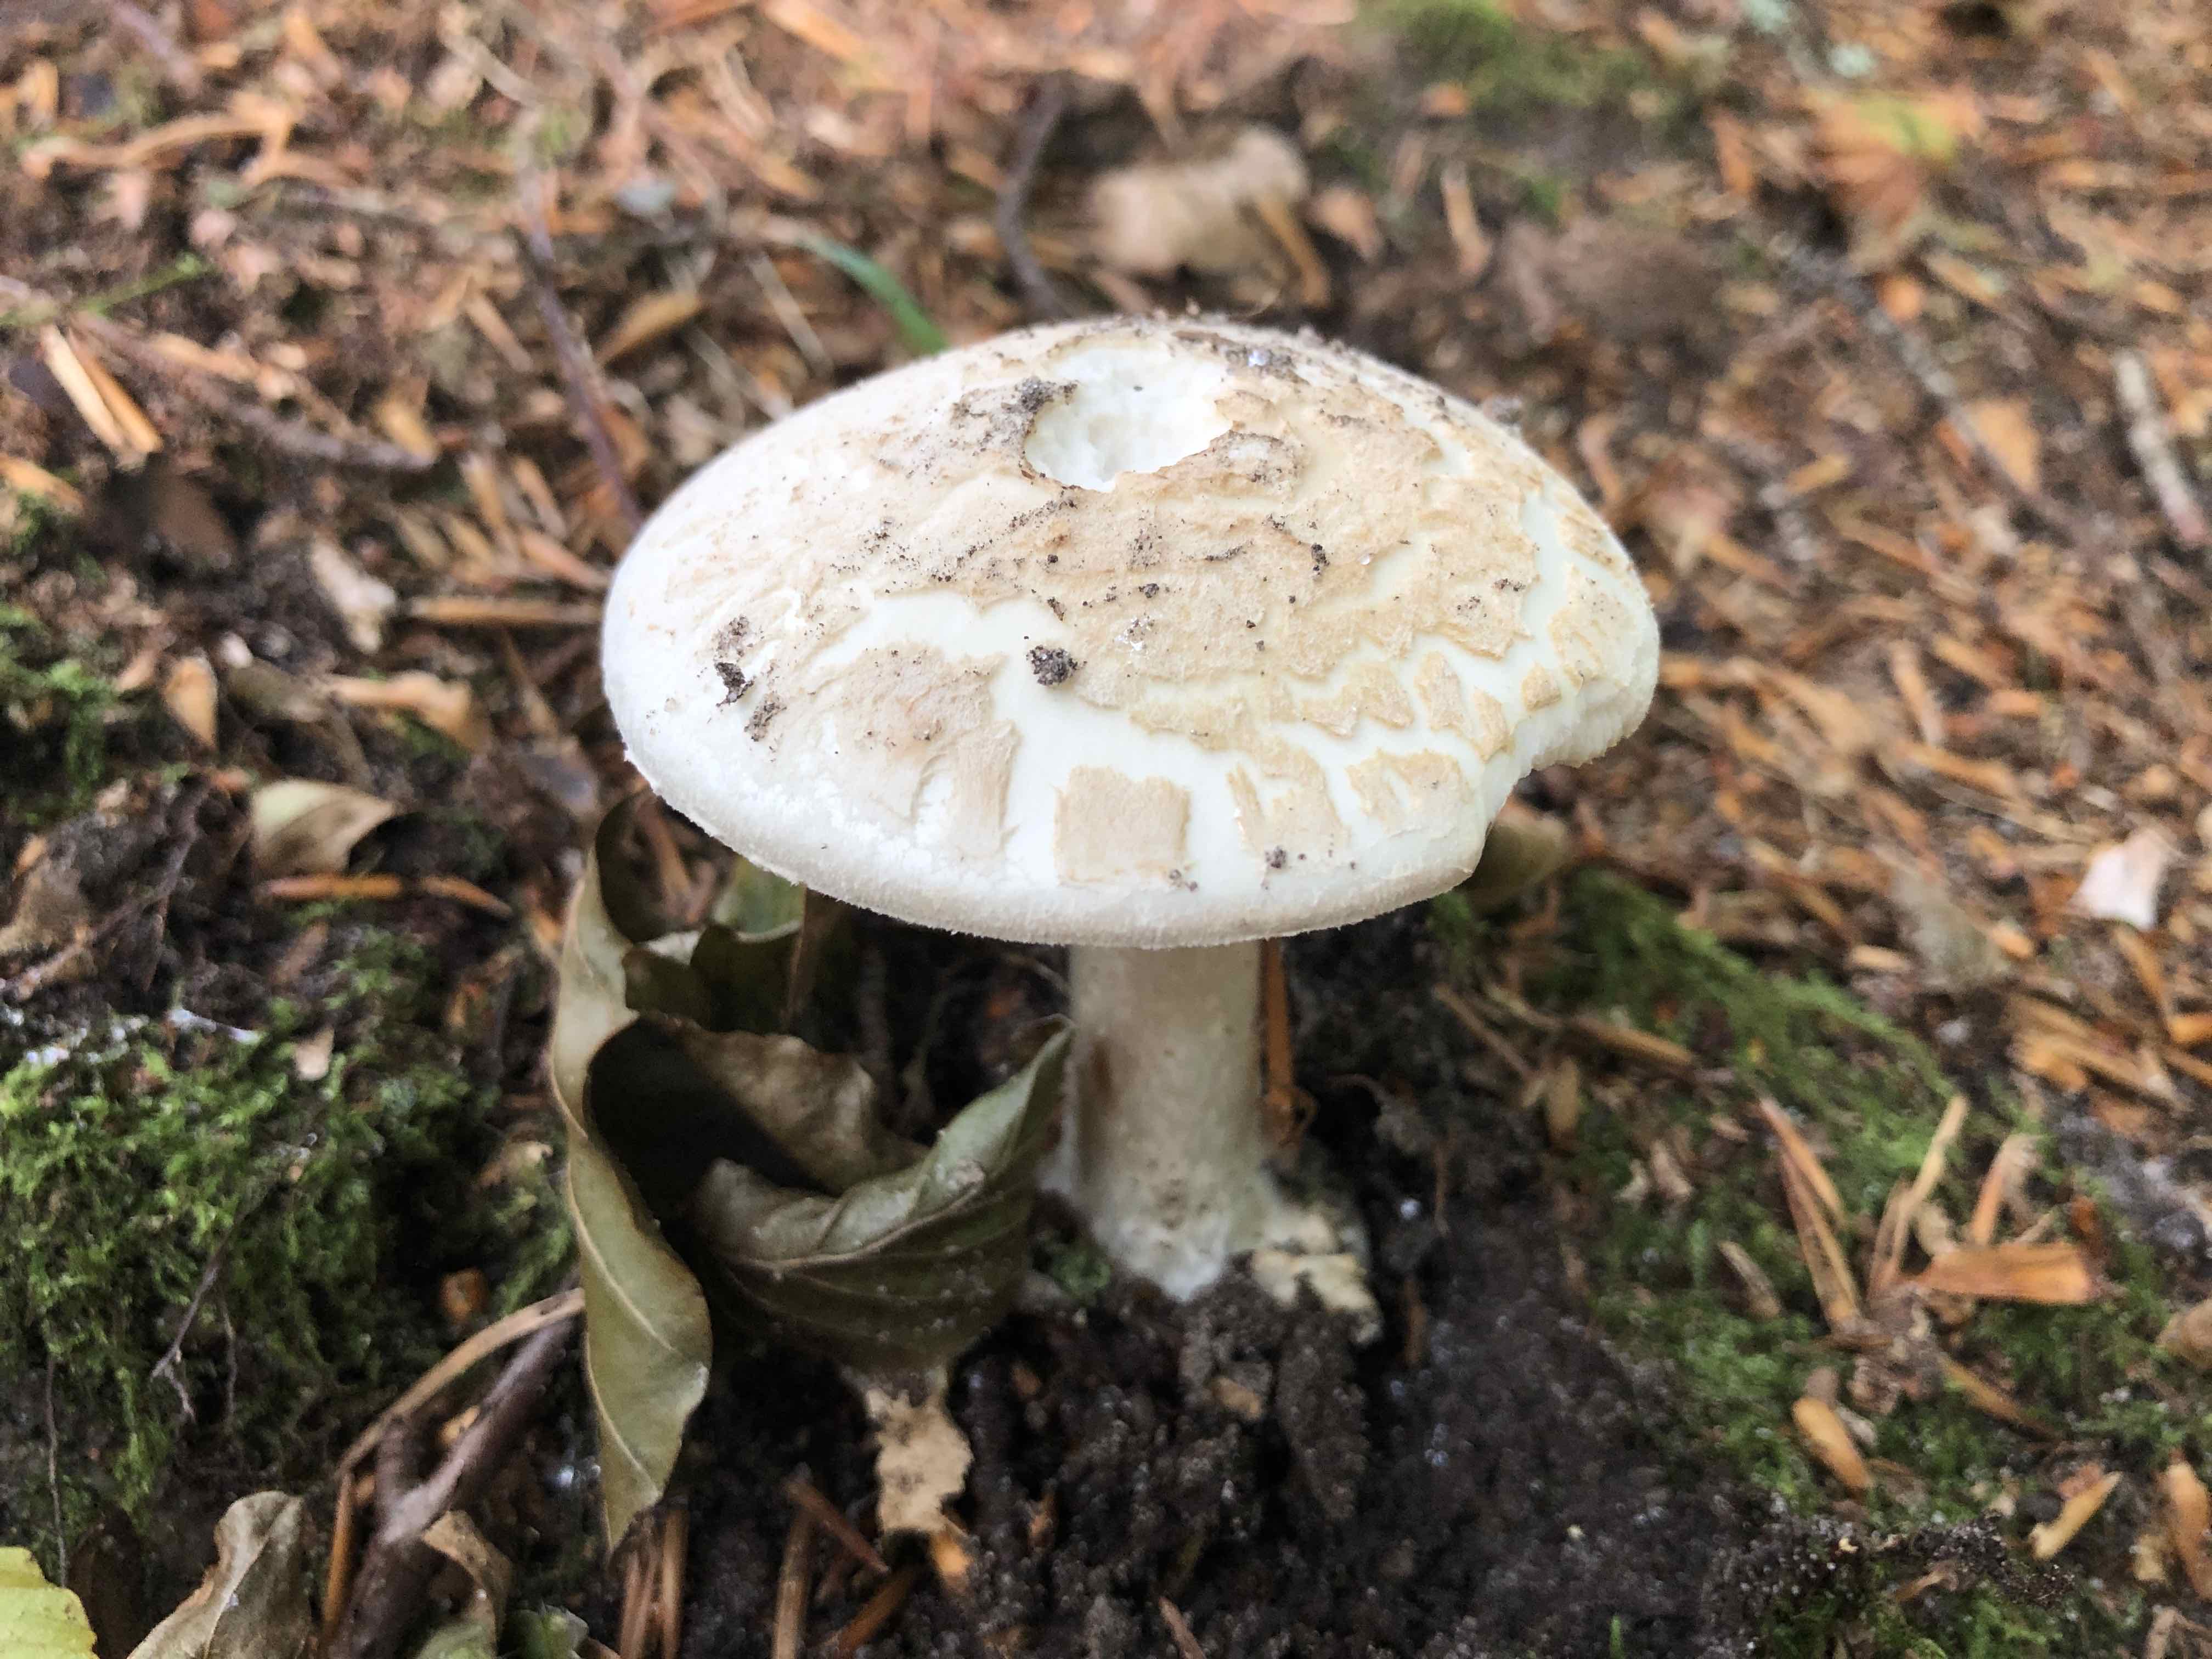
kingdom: Fungi
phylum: Basidiomycota
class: Agaricomycetes
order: Agaricales
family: Amanitaceae
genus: Amanita
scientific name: Amanita citrina
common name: kugleknoldet fluesvamp
